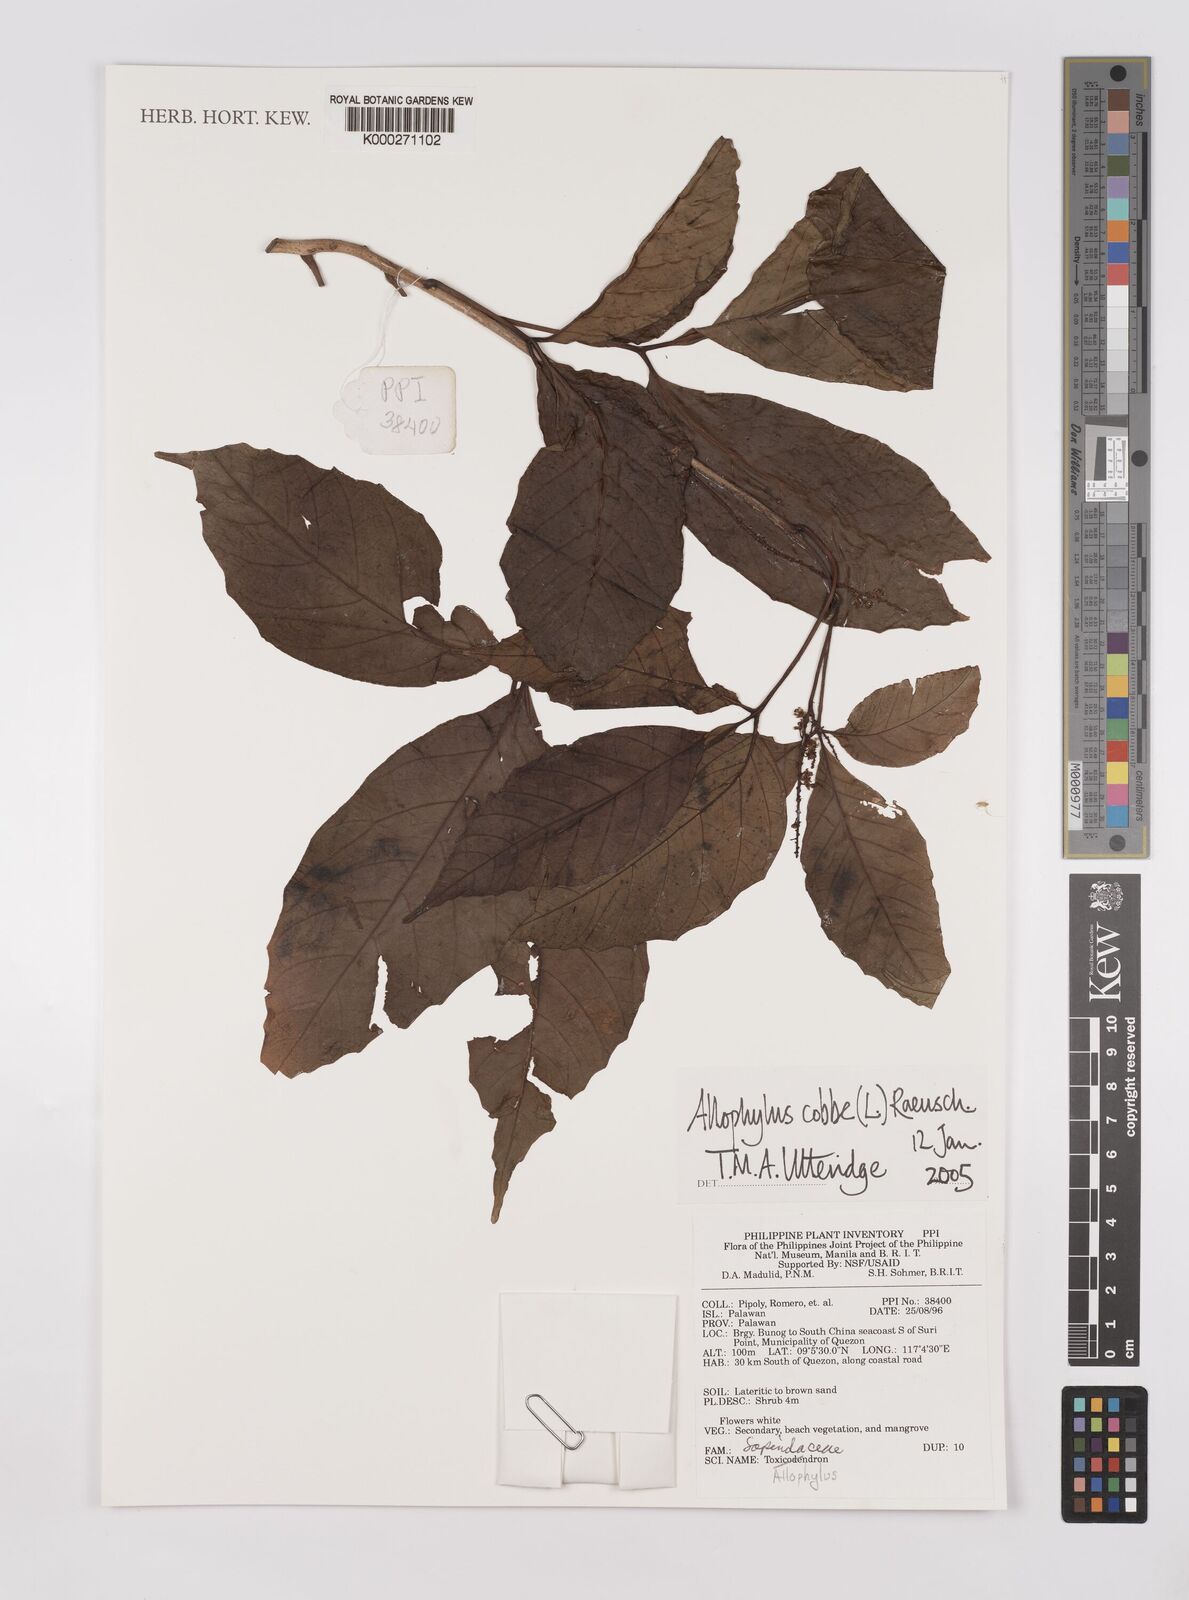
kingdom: Plantae
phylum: Tracheophyta
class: Magnoliopsida
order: Sapindales
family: Sapindaceae
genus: Allophylus
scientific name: Allophylus
